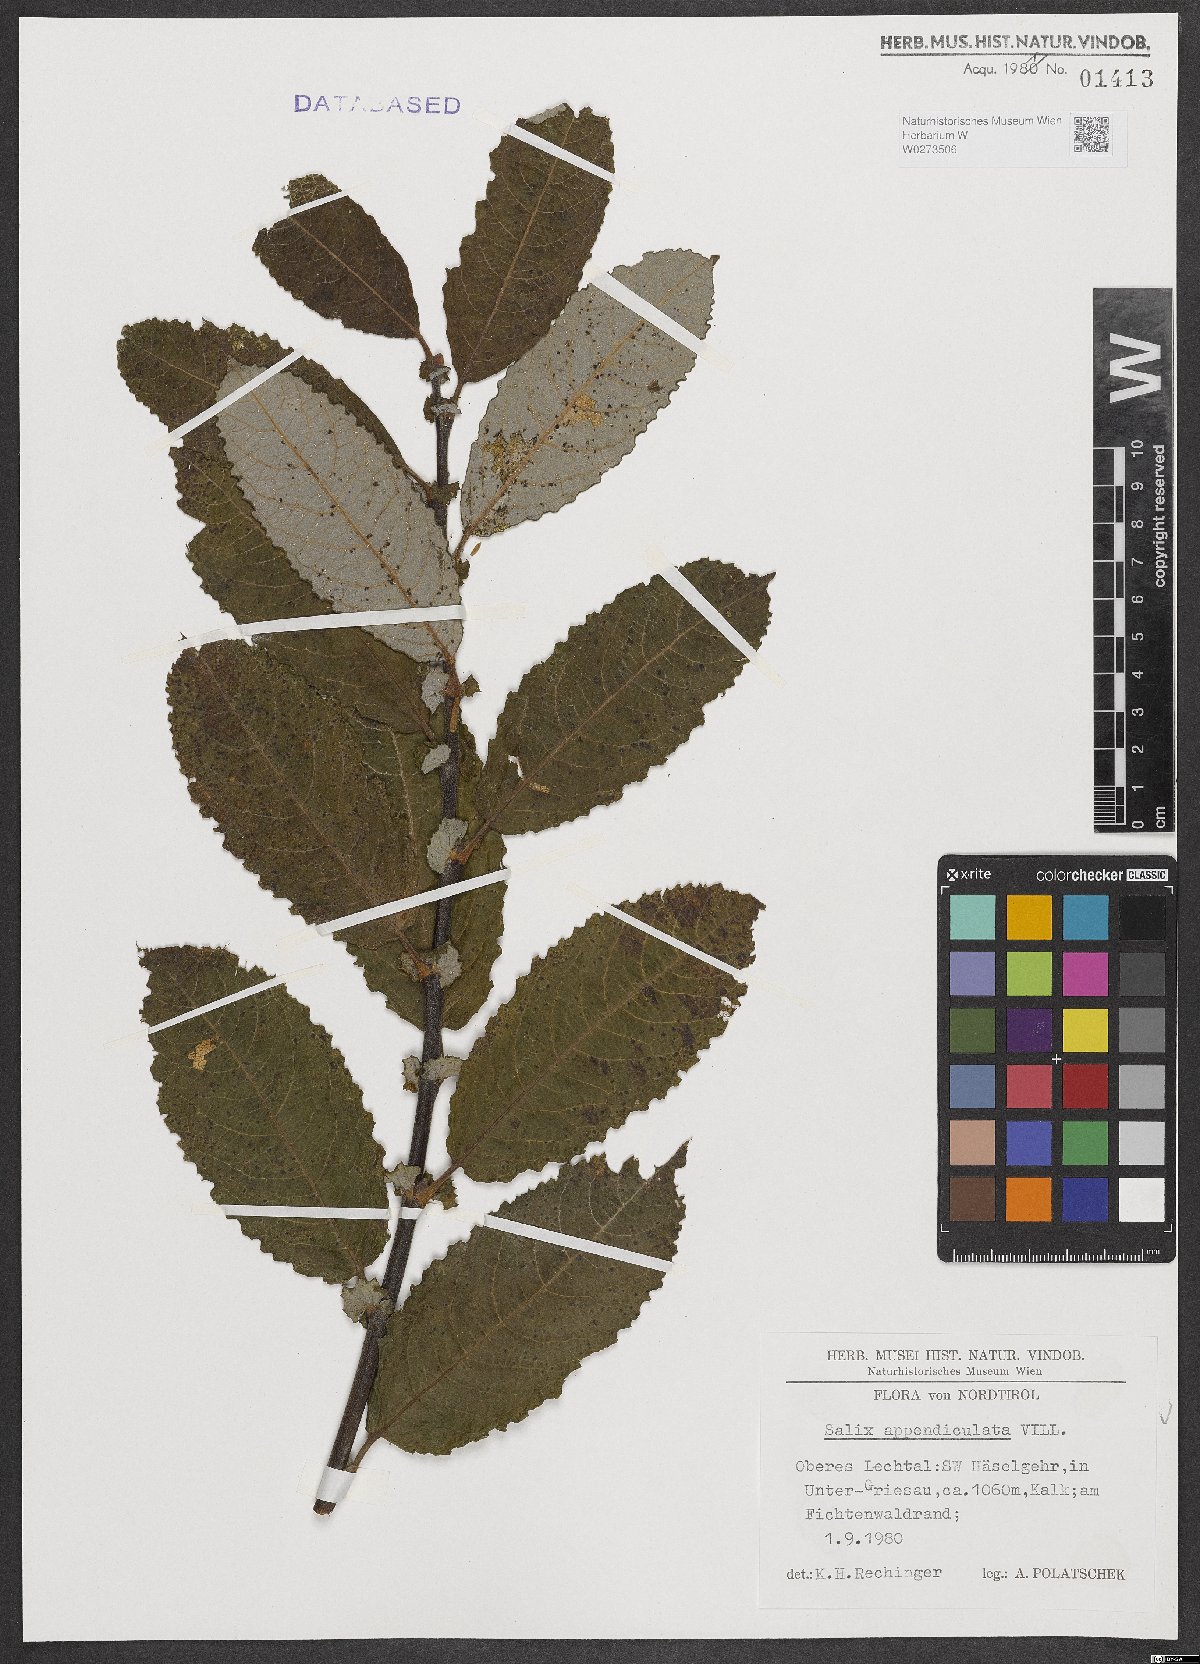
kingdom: Plantae
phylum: Tracheophyta
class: Magnoliopsida
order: Malpighiales
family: Salicaceae
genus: Salix
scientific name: Salix appendiculata
